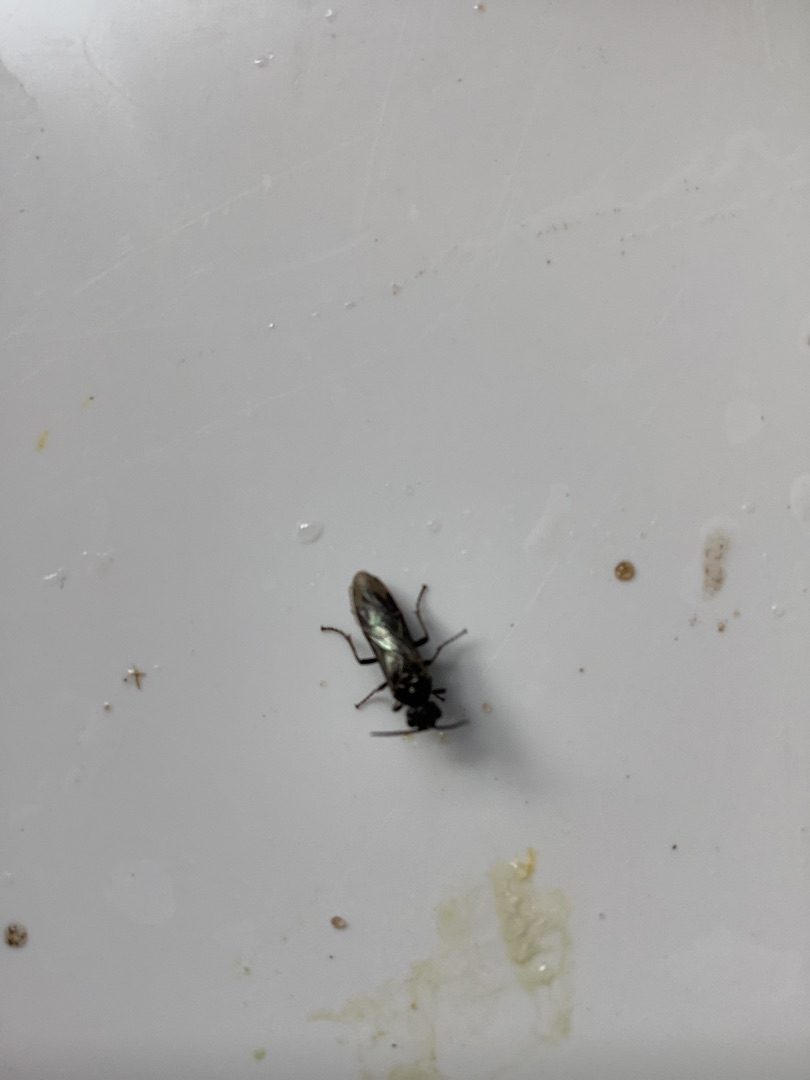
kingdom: Animalia
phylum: Arthropoda
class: Insecta
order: Hymenoptera
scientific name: Hymenoptera
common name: Årevinger
